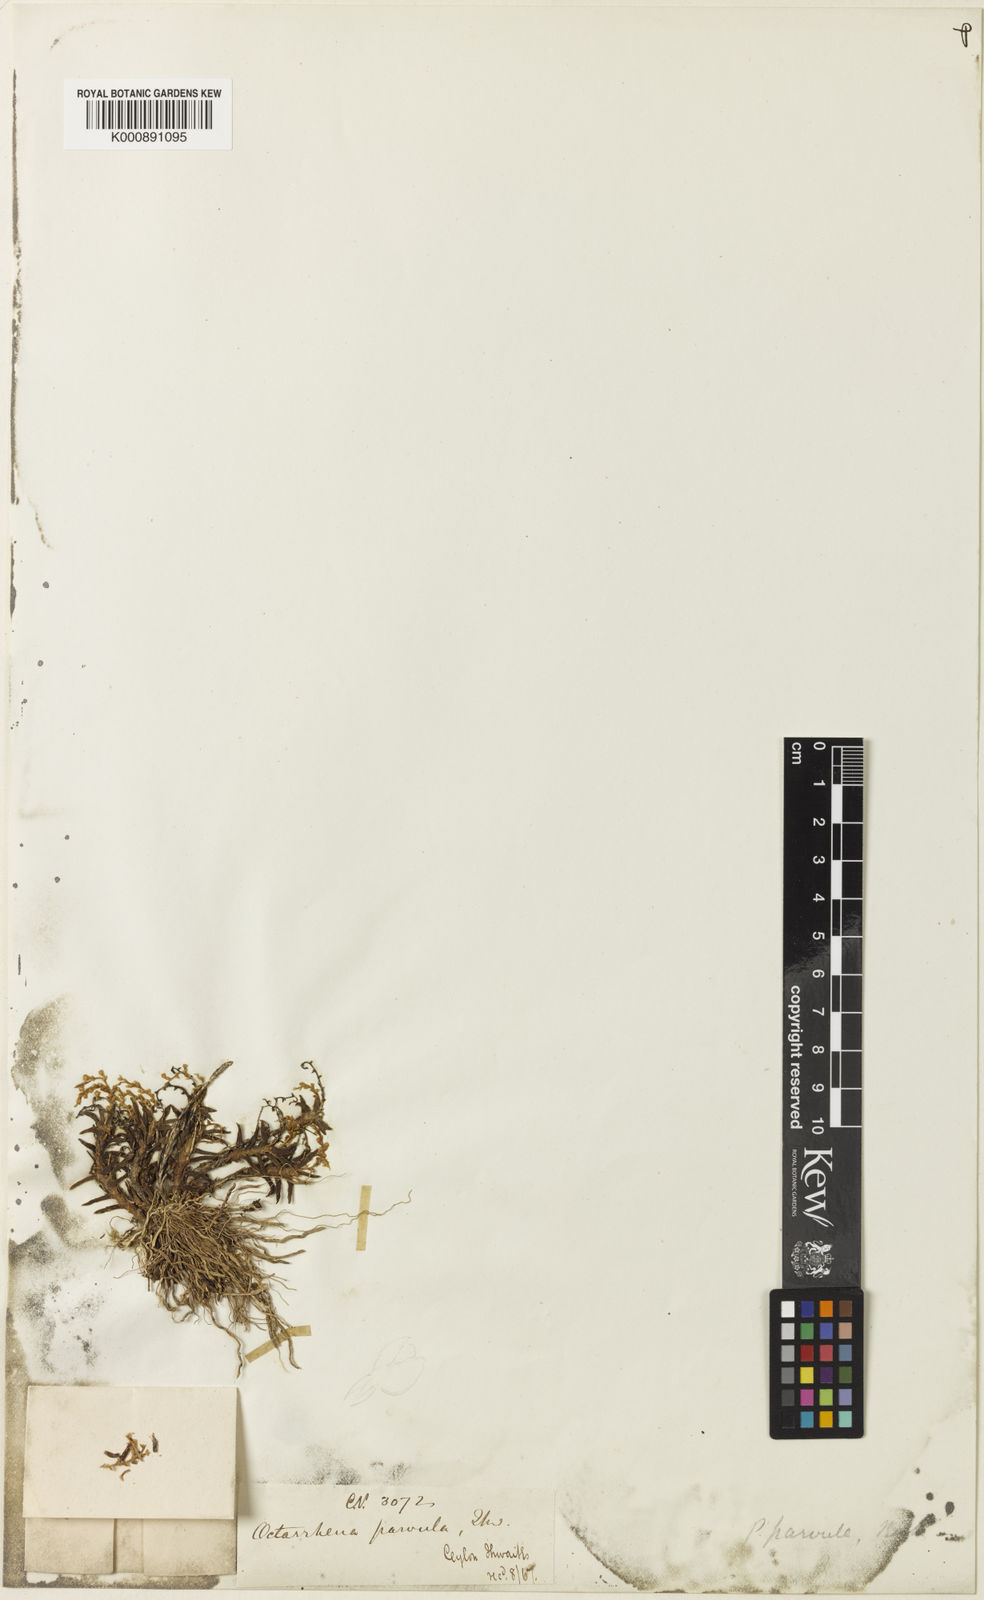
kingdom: Plantae
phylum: Tracheophyta
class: Liliopsida
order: Asparagales
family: Orchidaceae
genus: Octarrhena
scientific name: Octarrhena parvula
